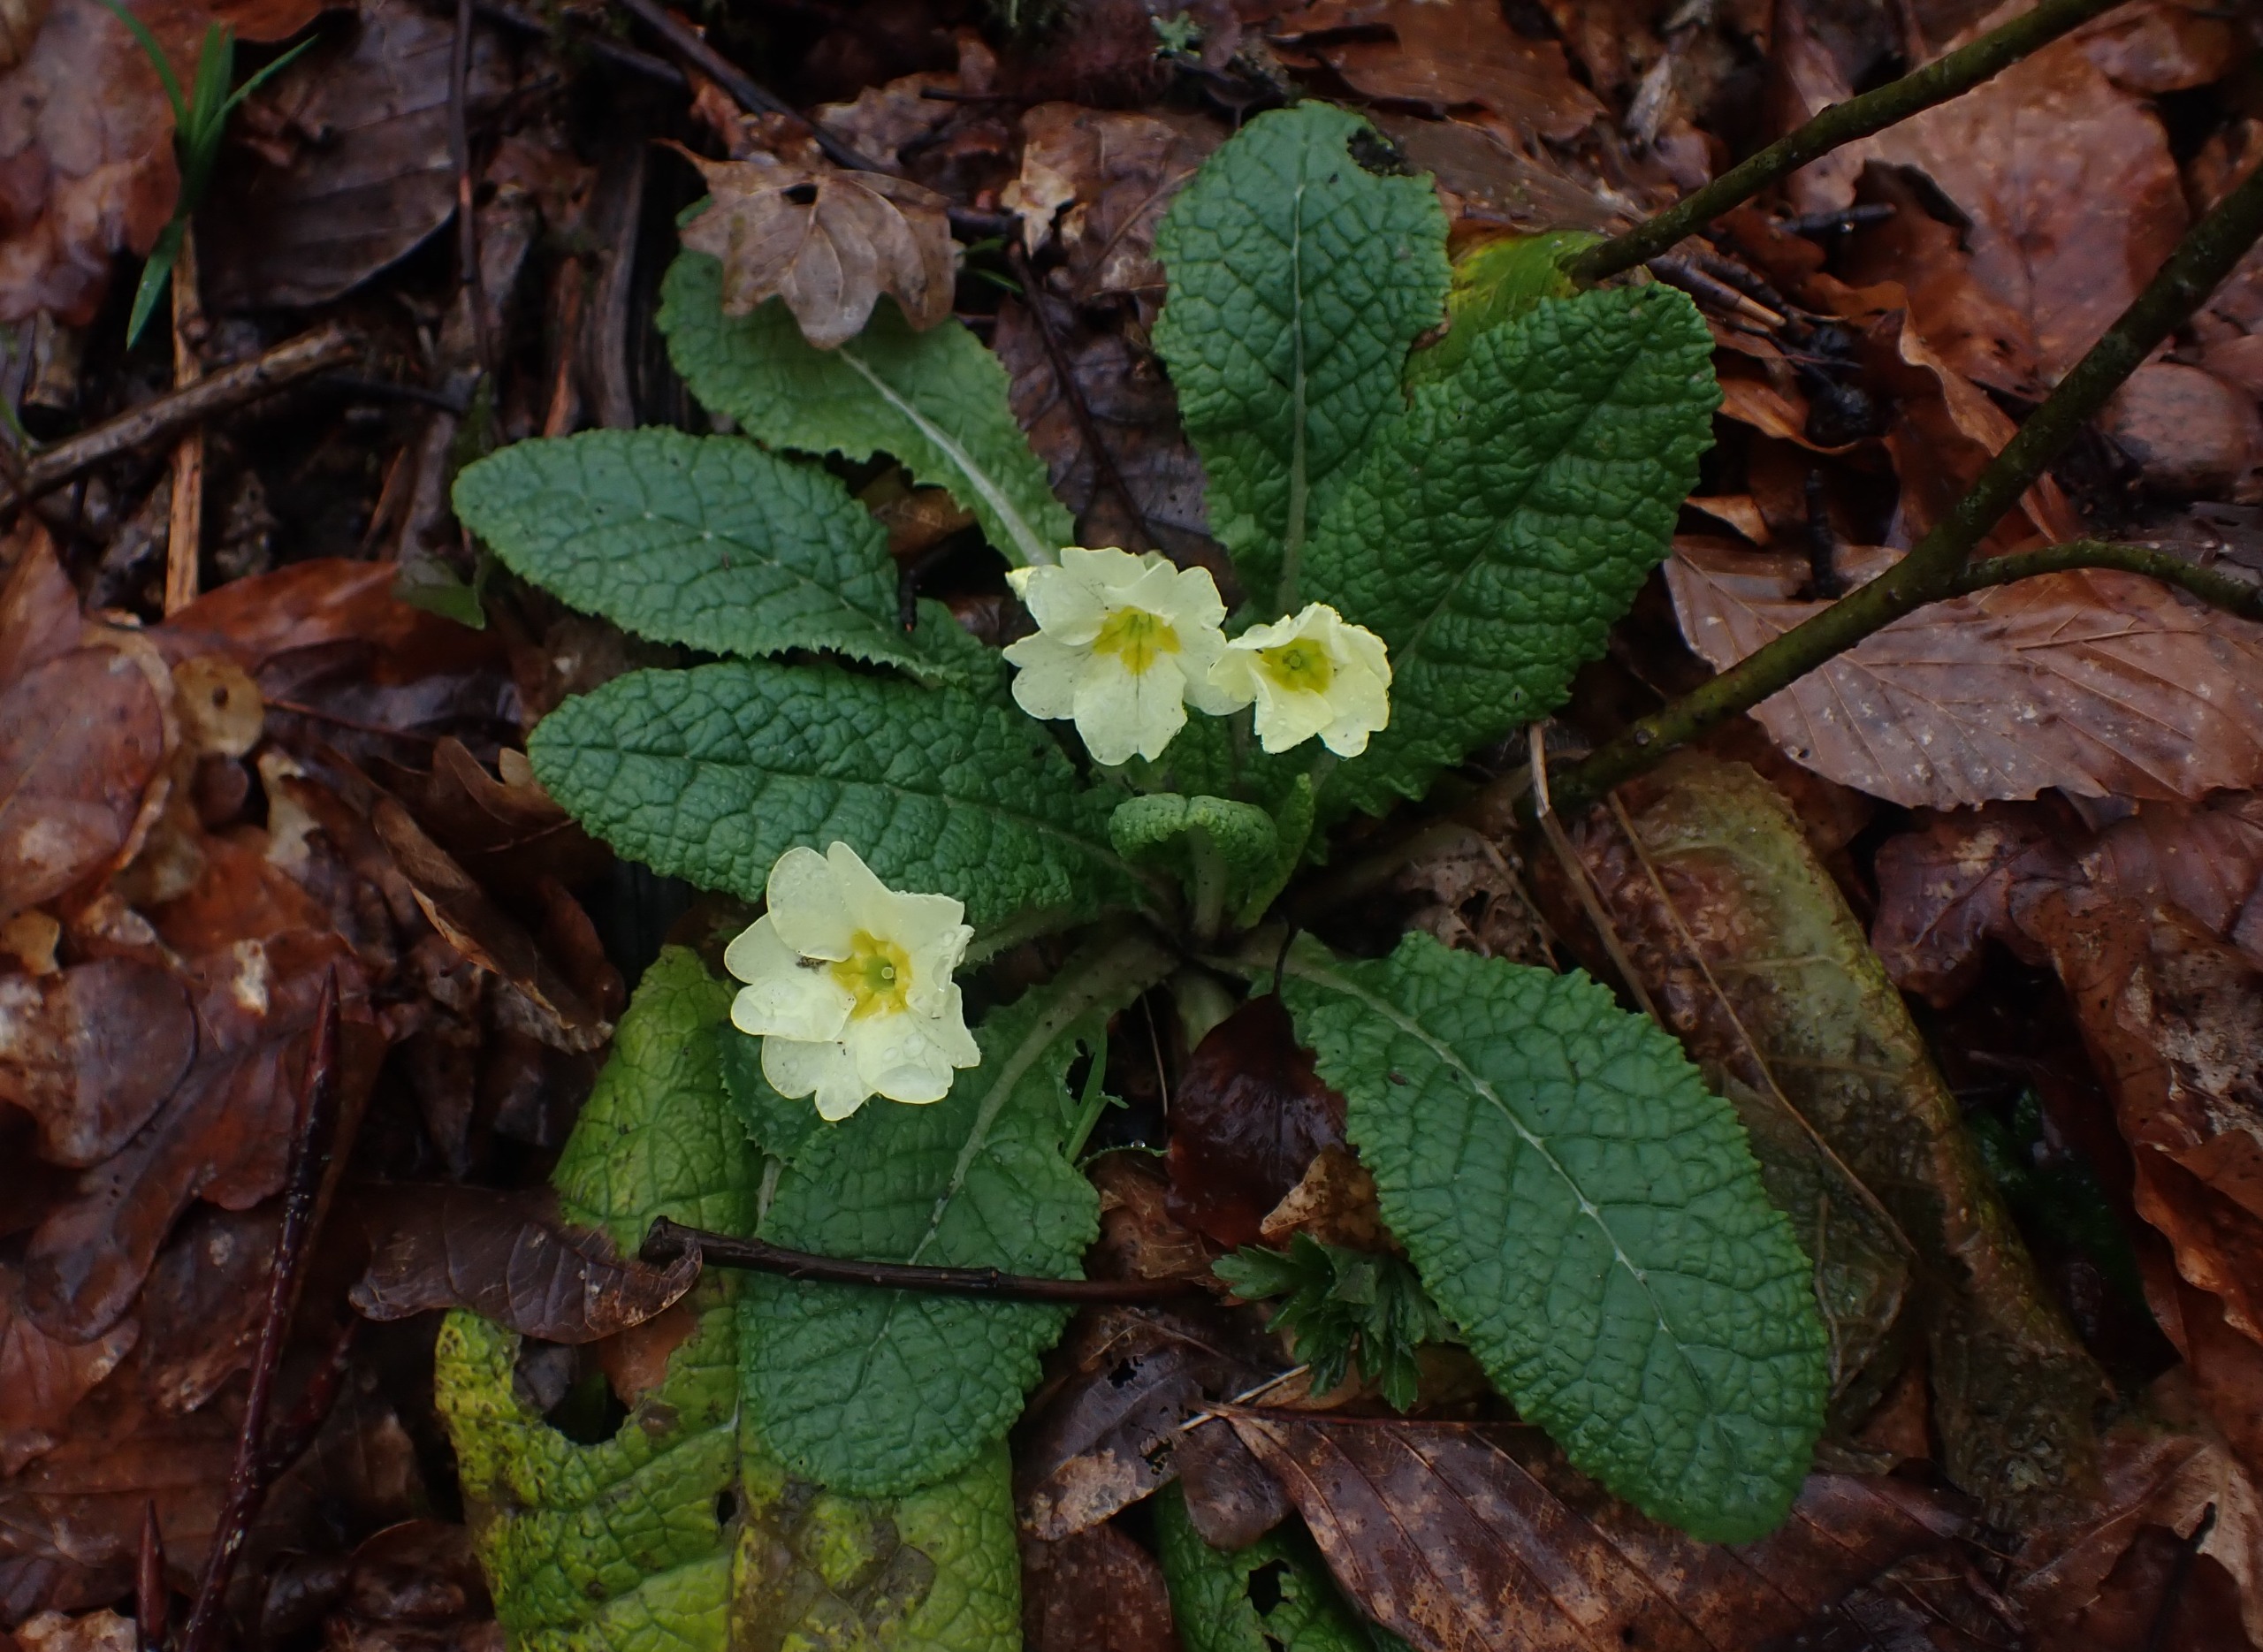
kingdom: Plantae
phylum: Tracheophyta
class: Magnoliopsida
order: Ericales
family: Primulaceae
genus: Primula
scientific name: Primula vulgaris
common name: Storblomstret kodriver
